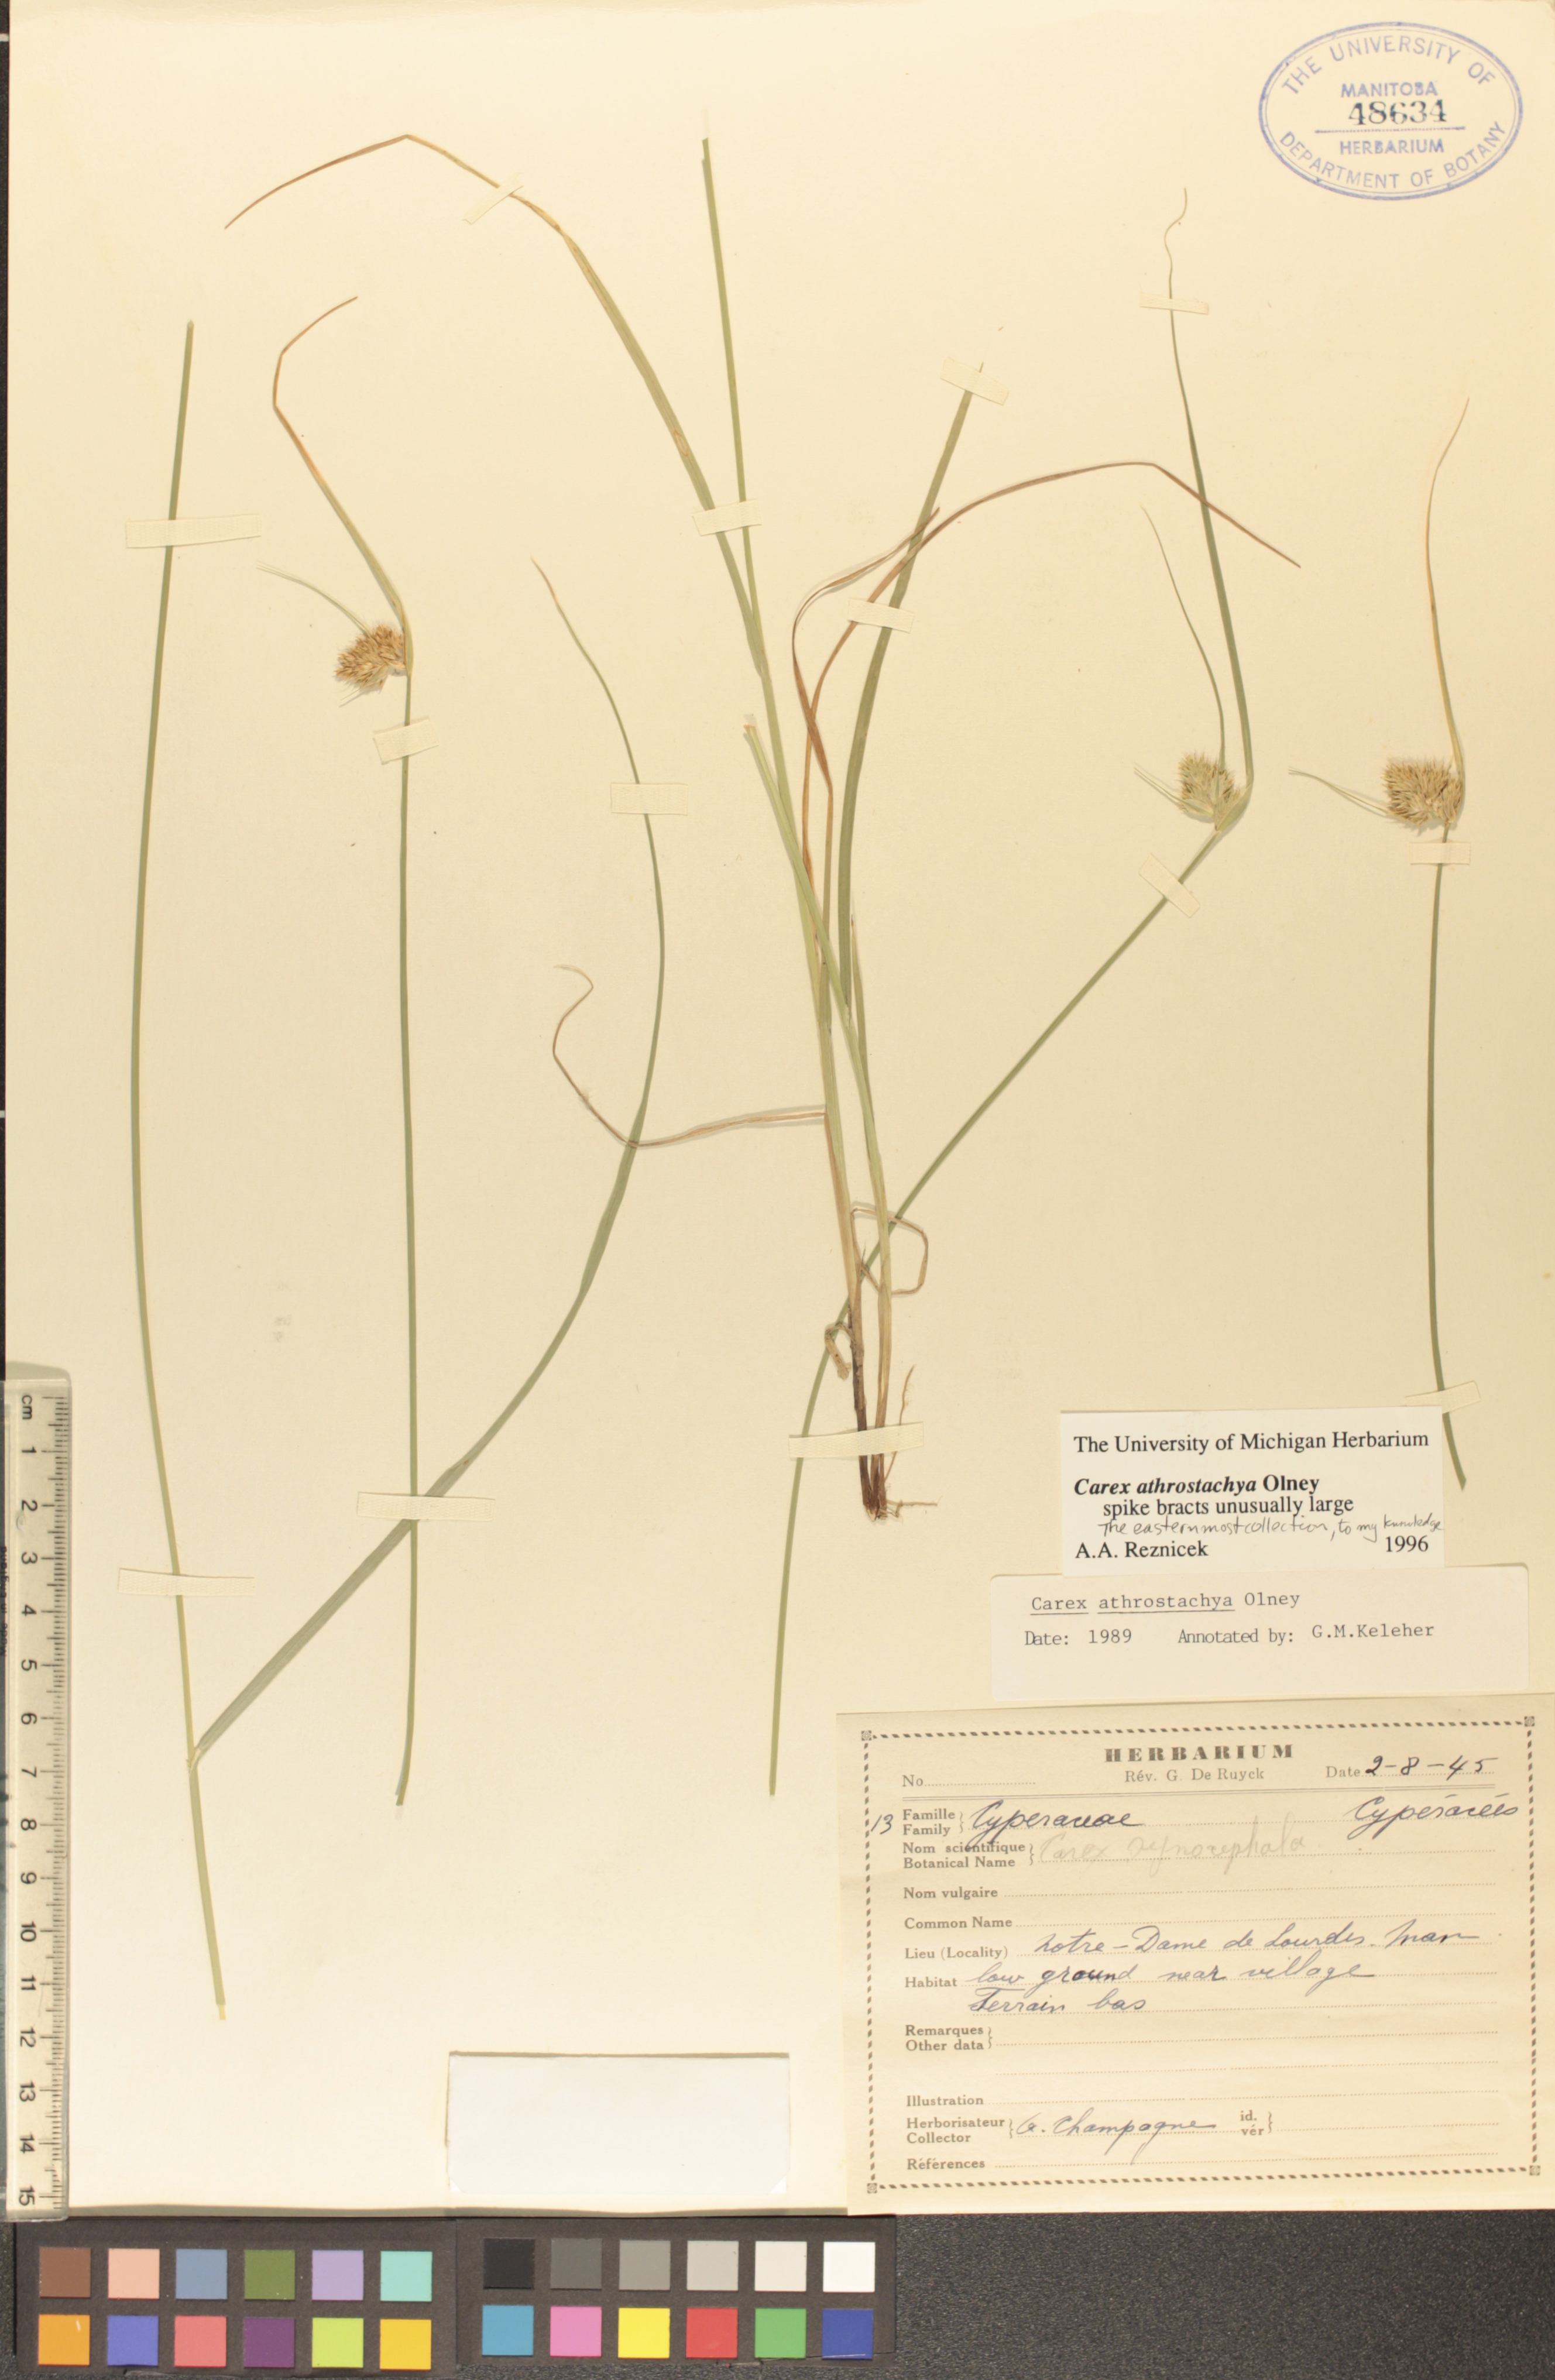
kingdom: Plantae
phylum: Tracheophyta
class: Liliopsida
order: Poales
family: Cyperaceae
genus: Carex
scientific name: Carex athrostachya
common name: Slenderbeak sedge
